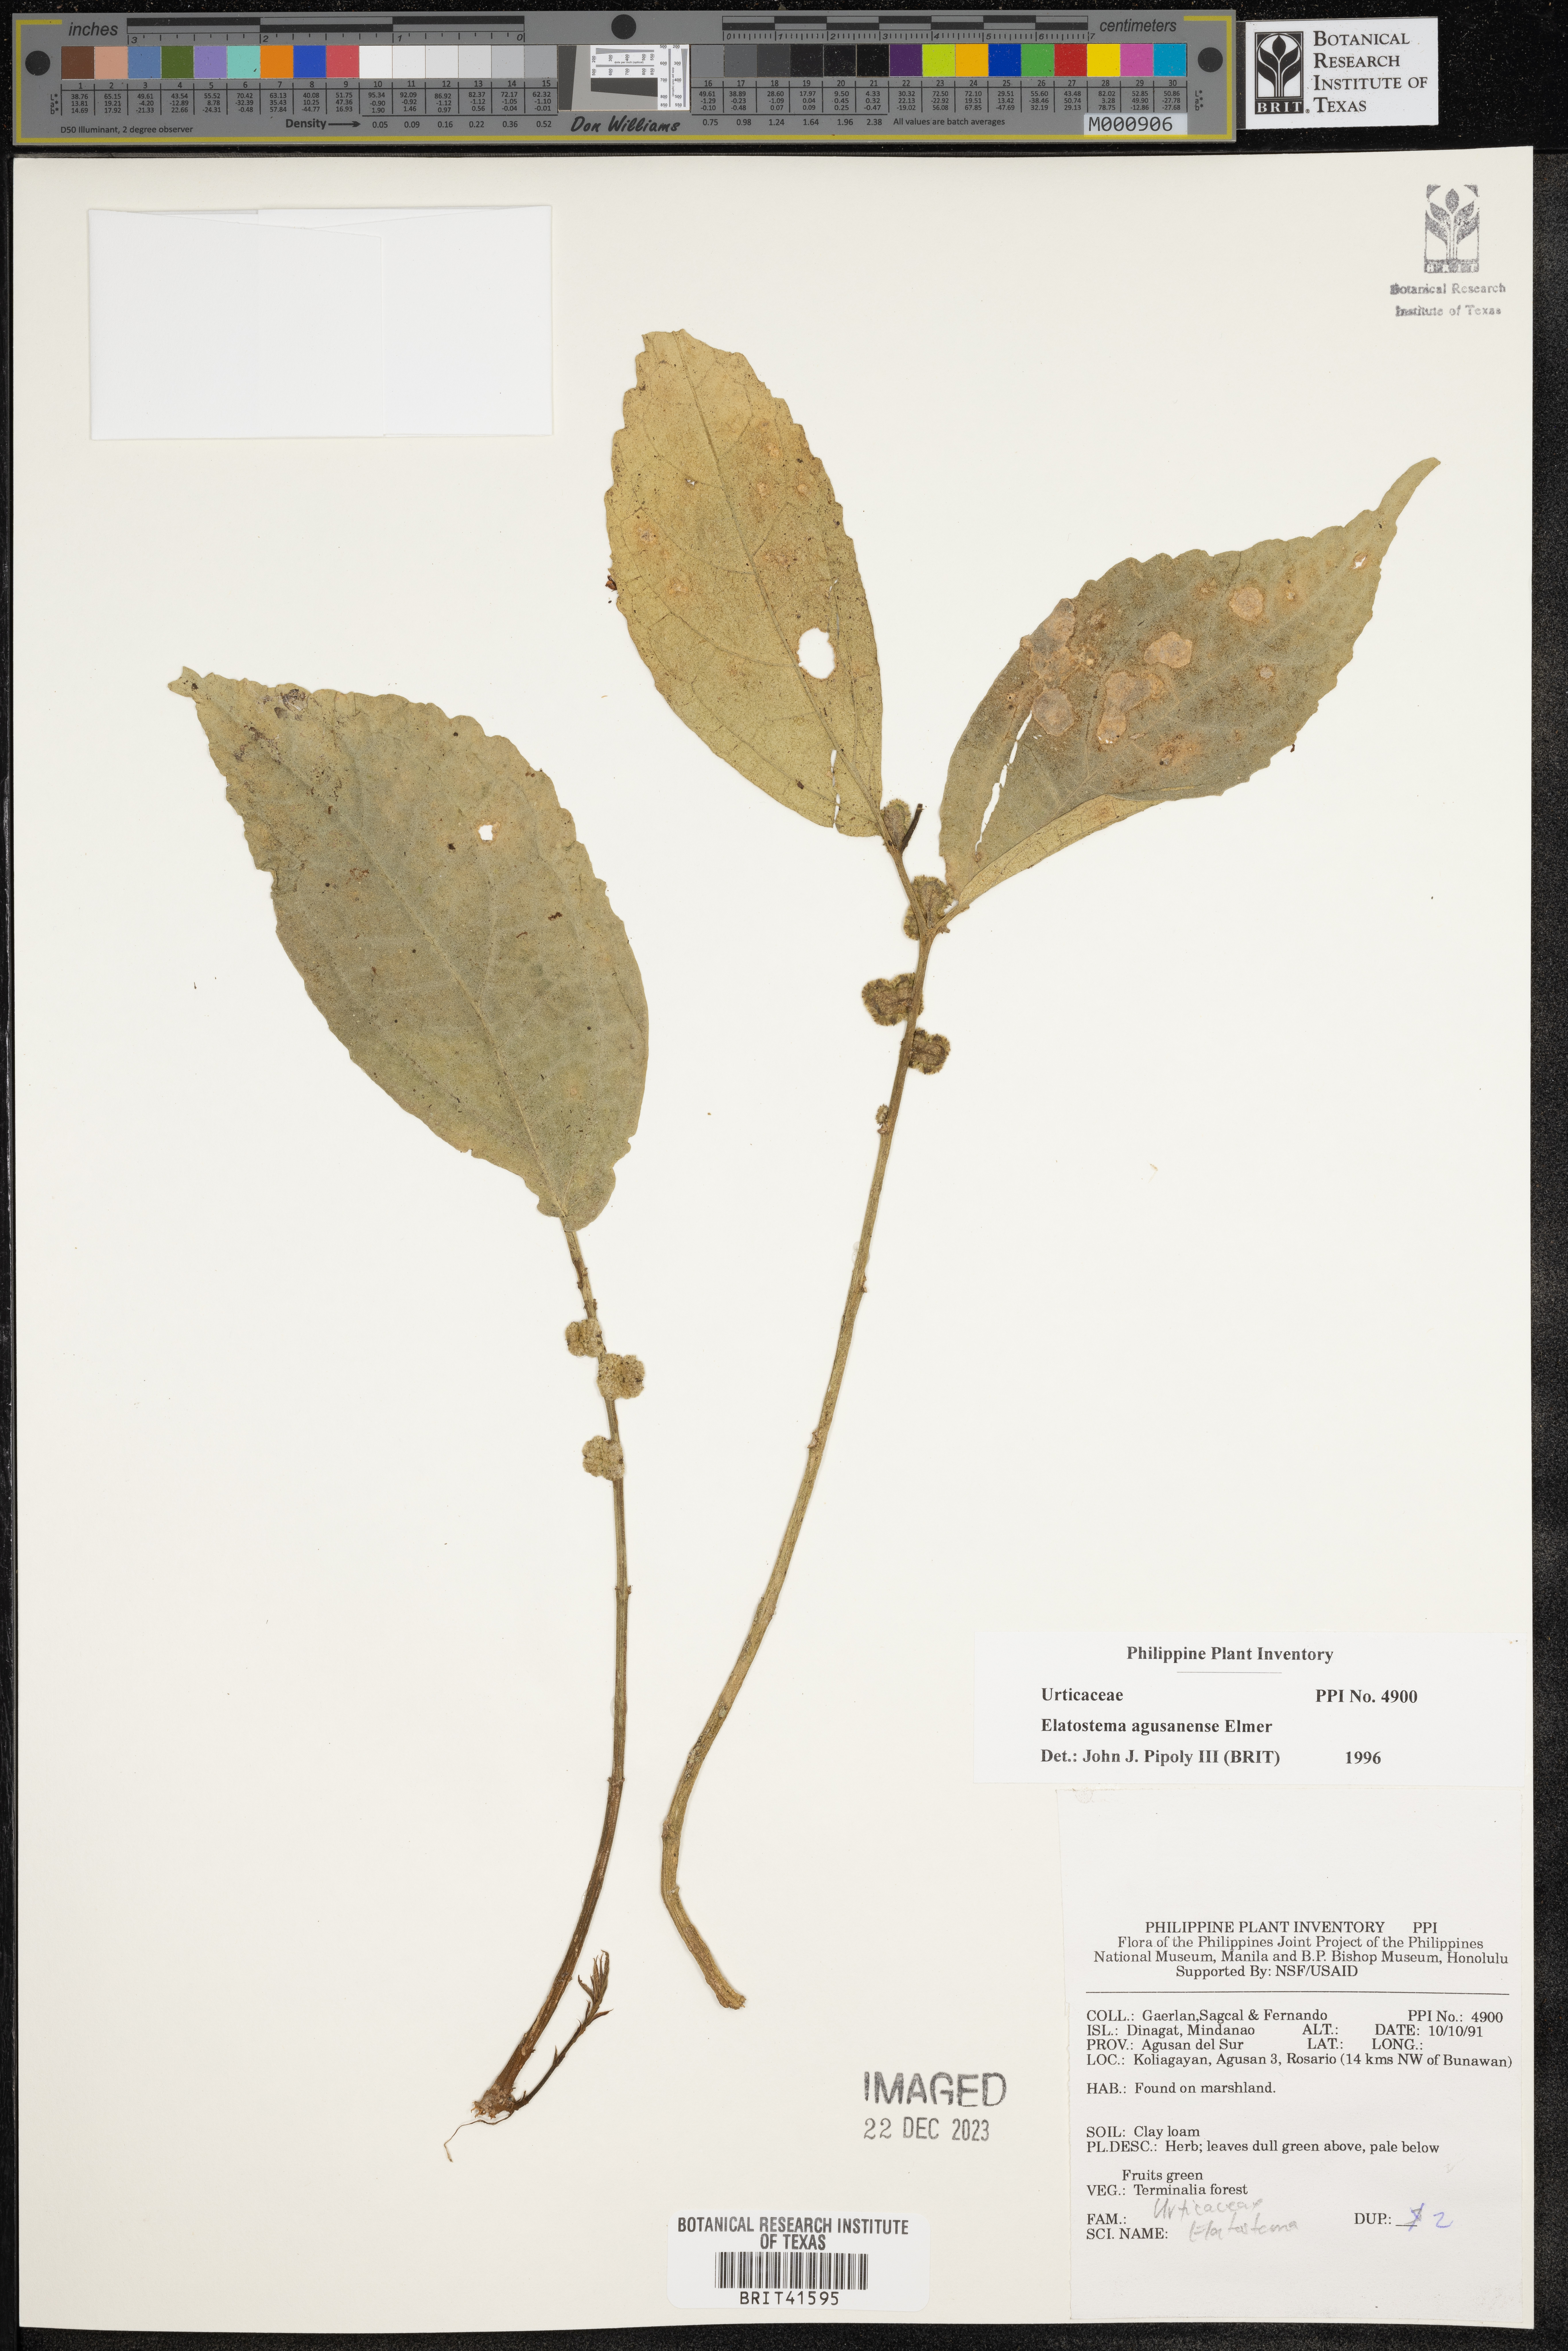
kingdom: Plantae
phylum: Tracheophyta
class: Magnoliopsida
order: Rosales
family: Urticaceae
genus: Elatostema
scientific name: Elatostema agusanense
